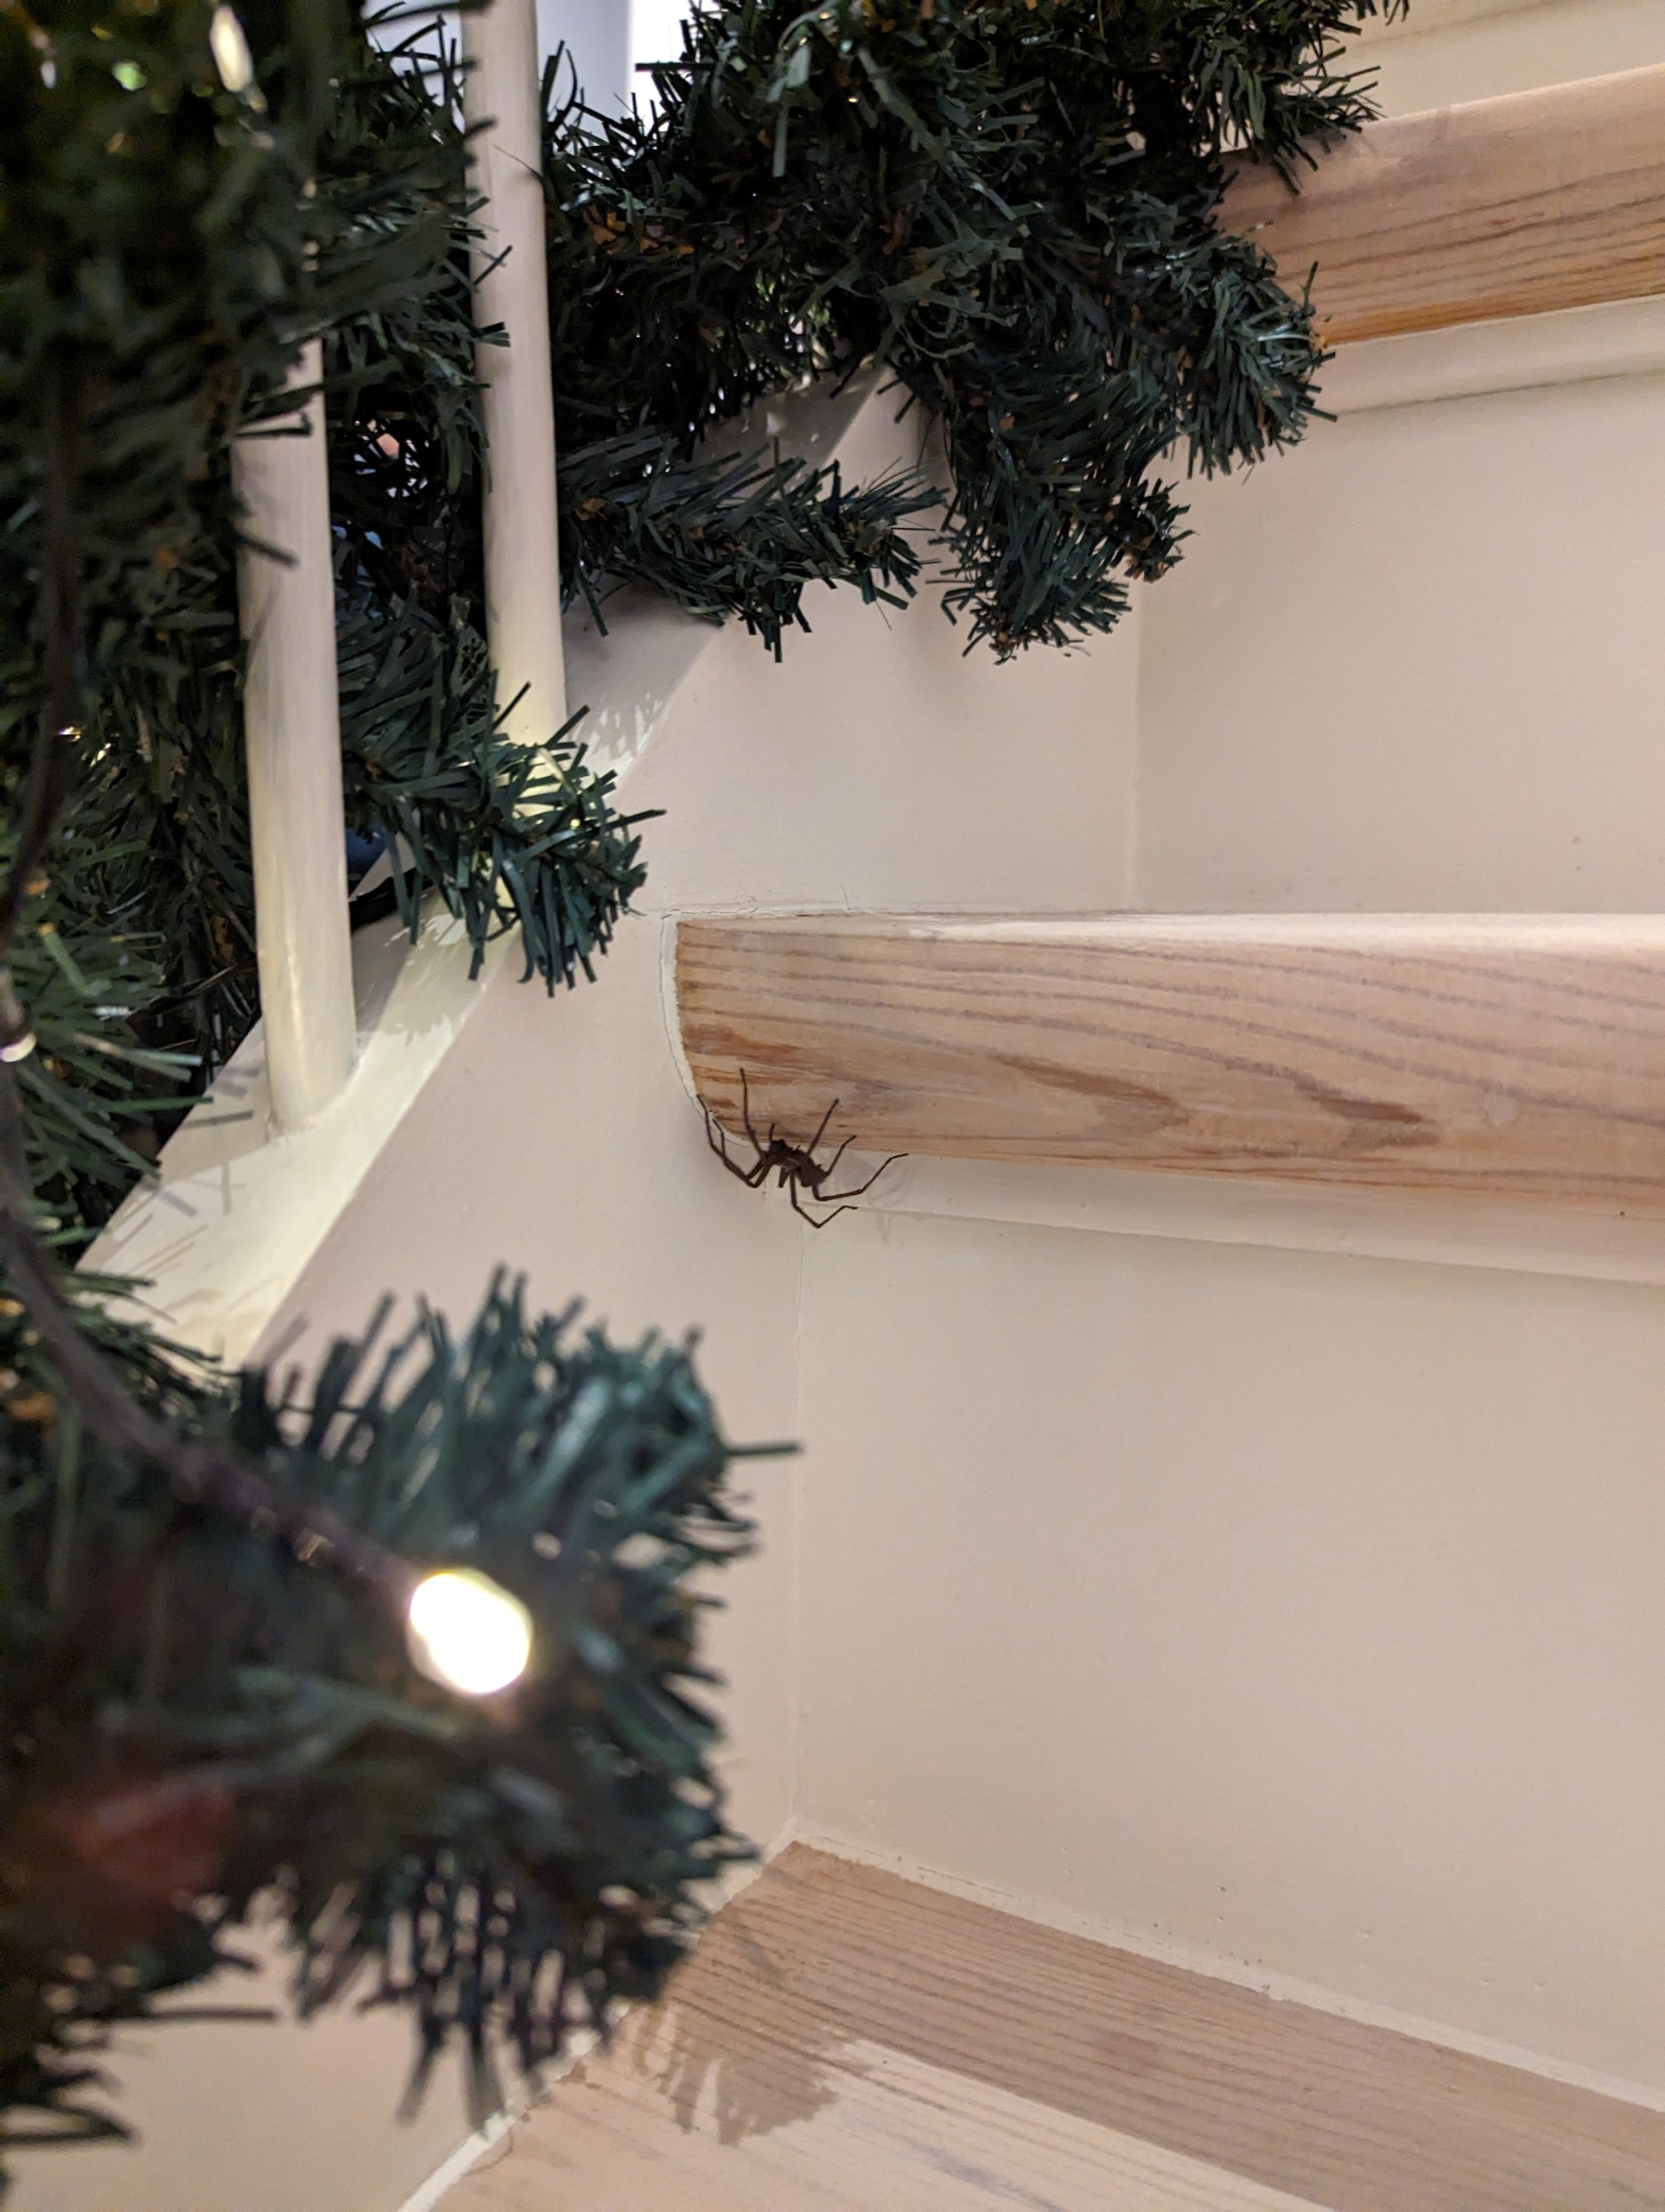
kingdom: Animalia
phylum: Arthropoda
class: Arachnida
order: Araneae
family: Agelenidae
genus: Eratigena
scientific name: Eratigena atrica
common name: Stor husedderkop
